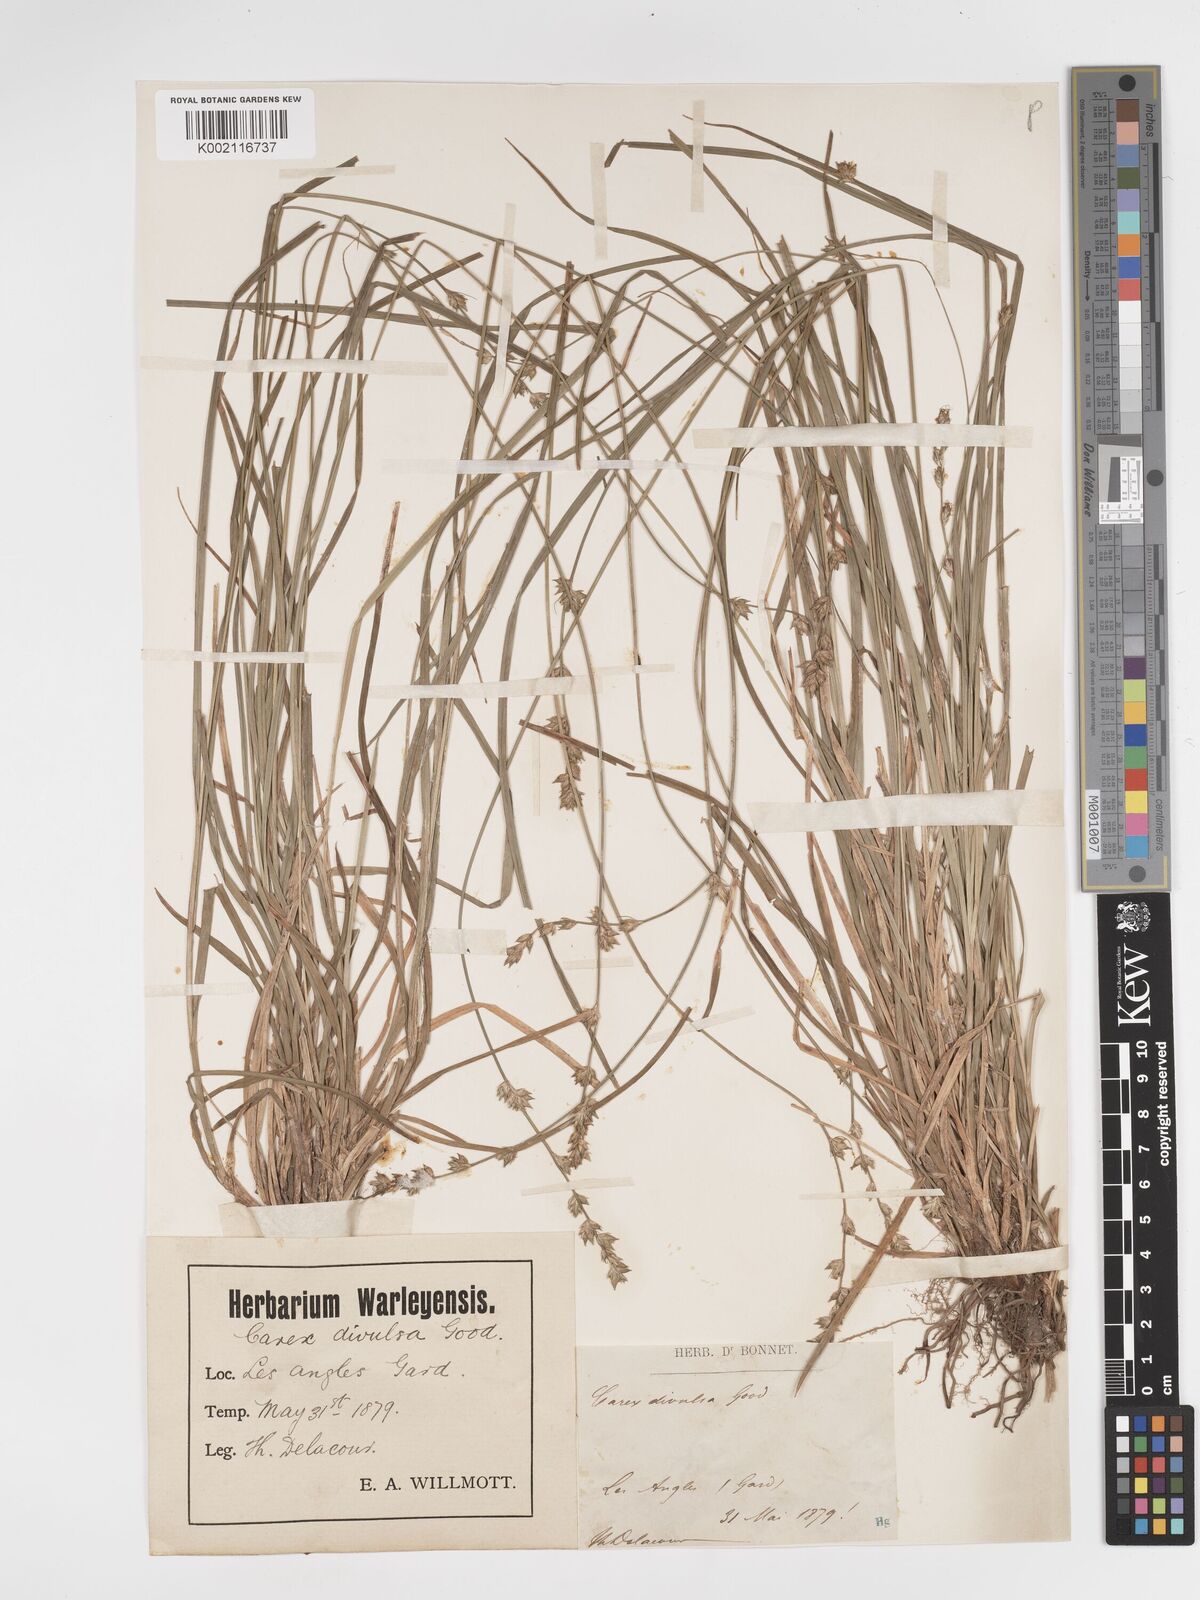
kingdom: Plantae
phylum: Tracheophyta
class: Liliopsida
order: Poales
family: Cyperaceae
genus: Carex
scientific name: Carex divulsa
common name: Grassland sedge
